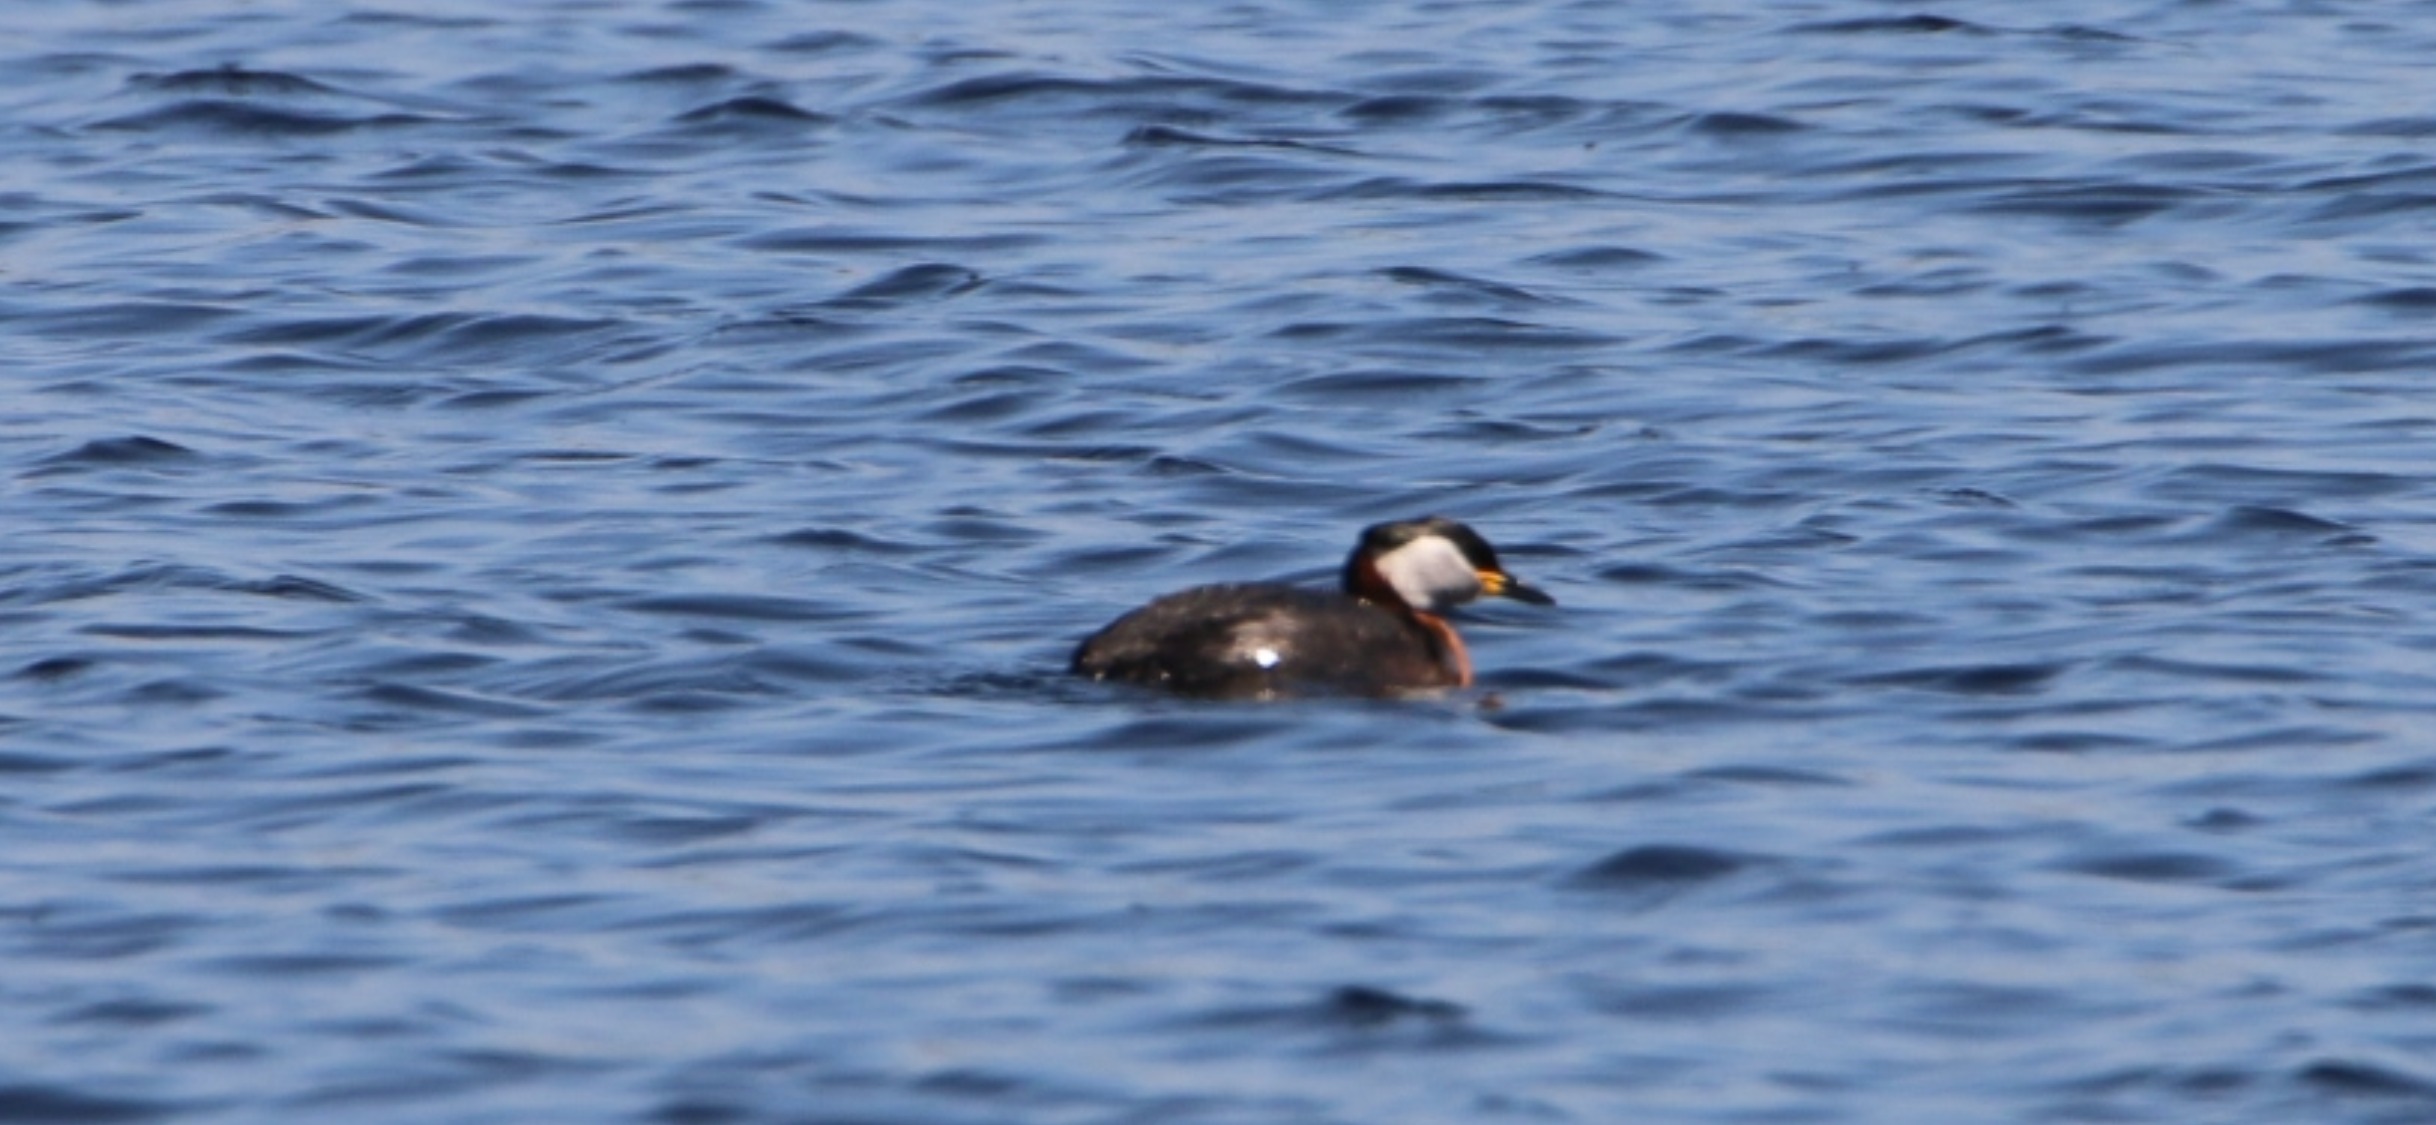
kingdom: Animalia
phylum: Chordata
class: Aves
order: Podicipediformes
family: Podicipedidae
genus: Podiceps
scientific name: Podiceps grisegena
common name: Gråstrubet lappedykker
